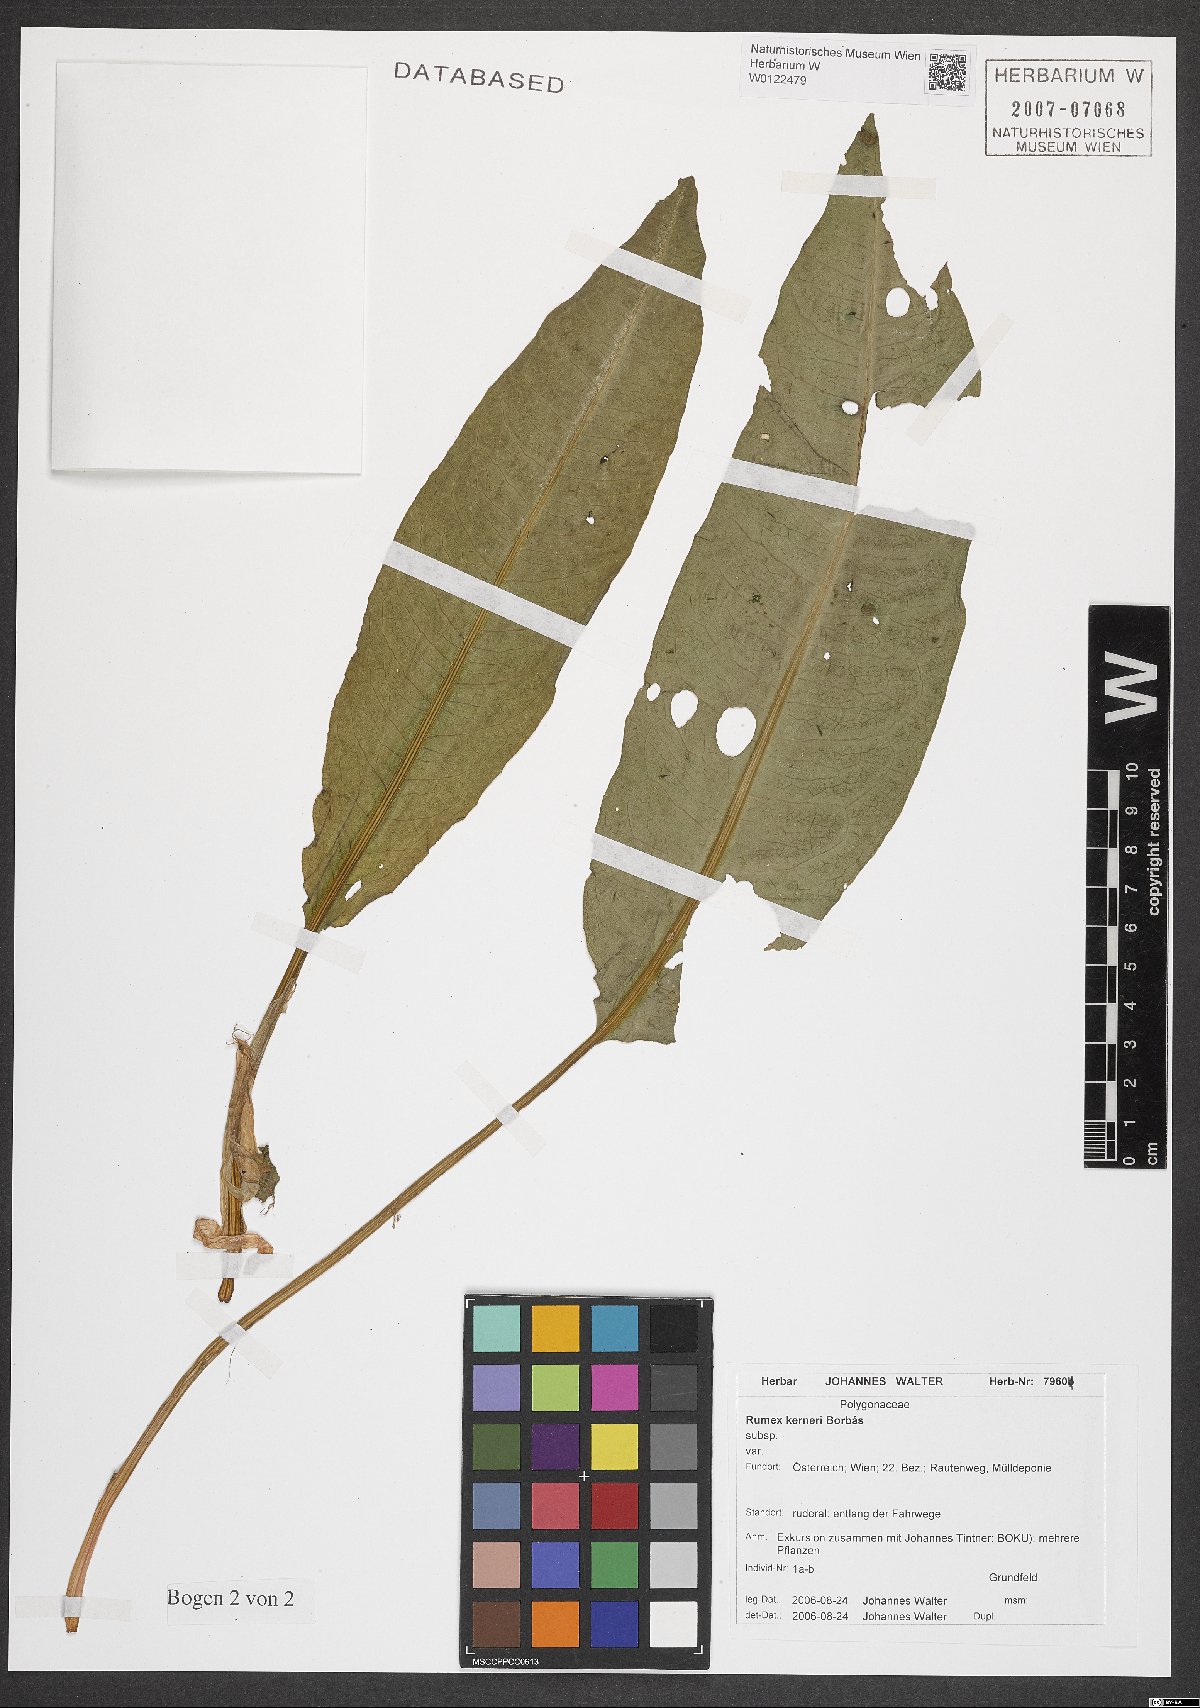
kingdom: Plantae
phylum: Tracheophyta
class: Magnoliopsida
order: Caryophyllales
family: Polygonaceae
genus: Rumex
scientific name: Rumex kerneri
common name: Kerner's dock
